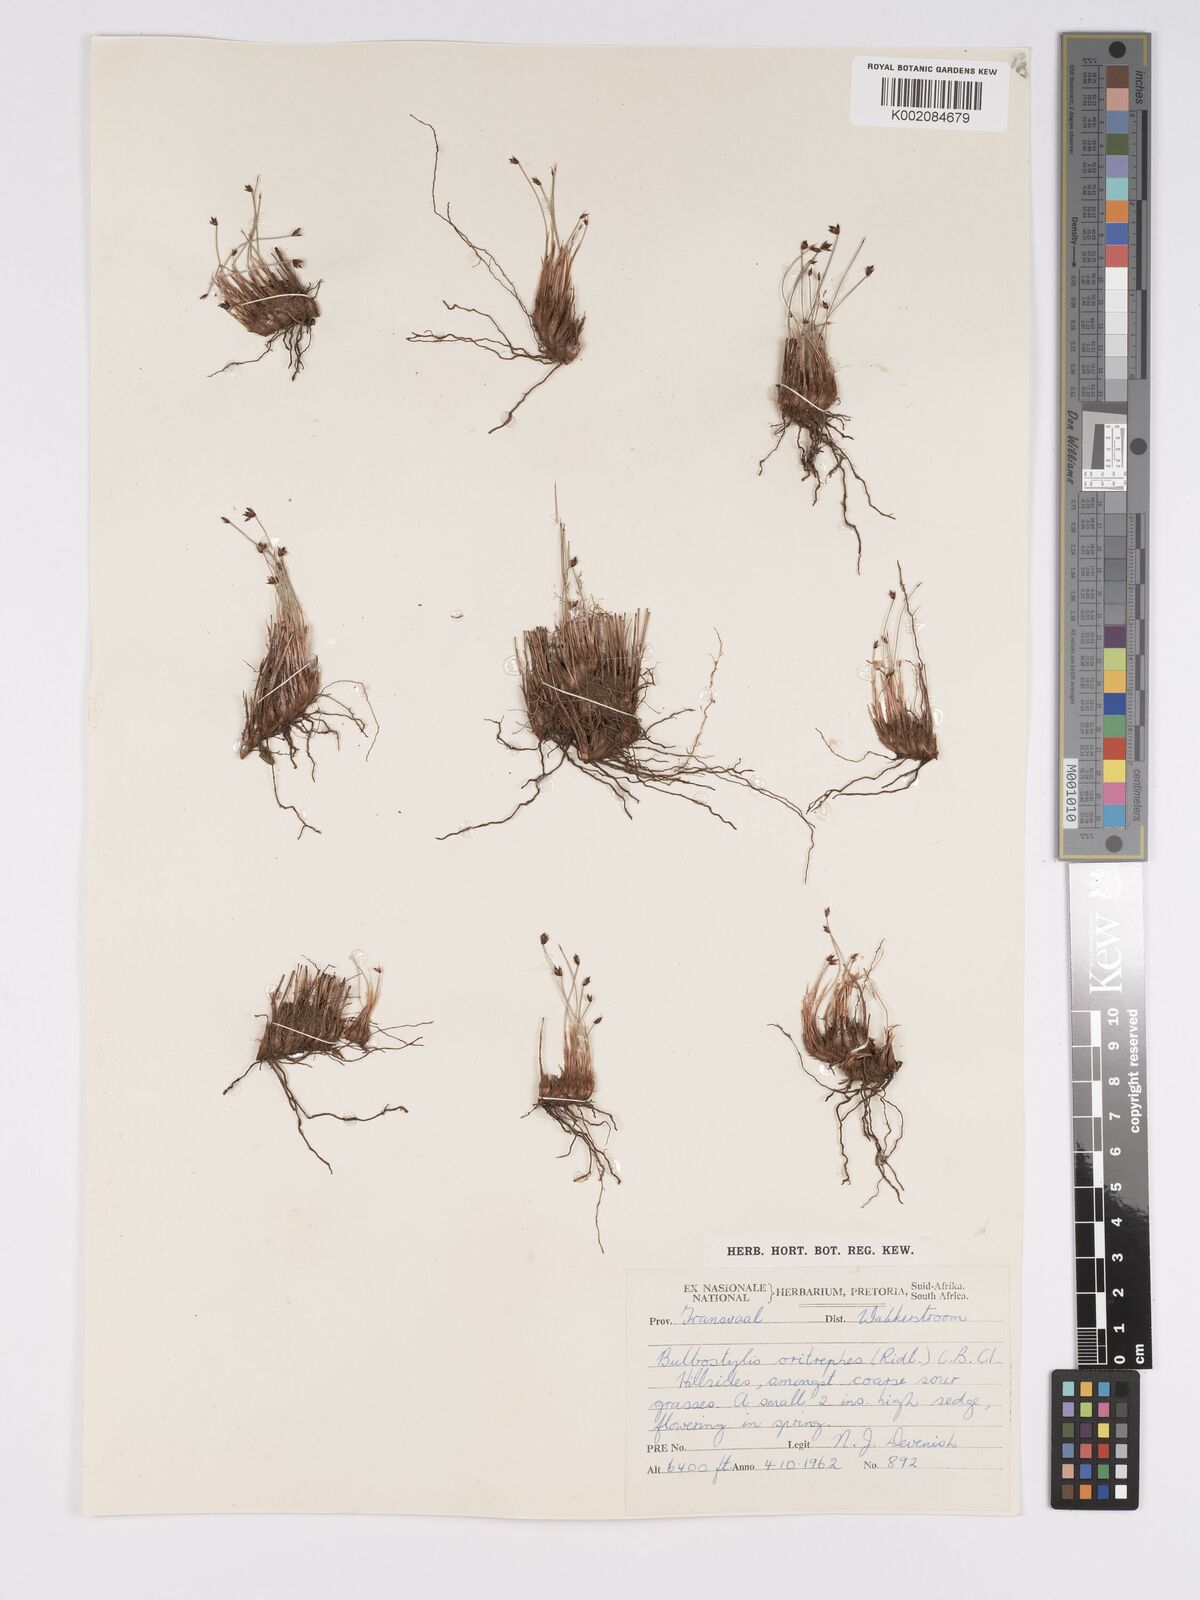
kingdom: Plantae
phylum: Tracheophyta
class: Liliopsida
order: Poales
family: Cyperaceae
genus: Bulbostylis
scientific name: Bulbostylis oritrephes
